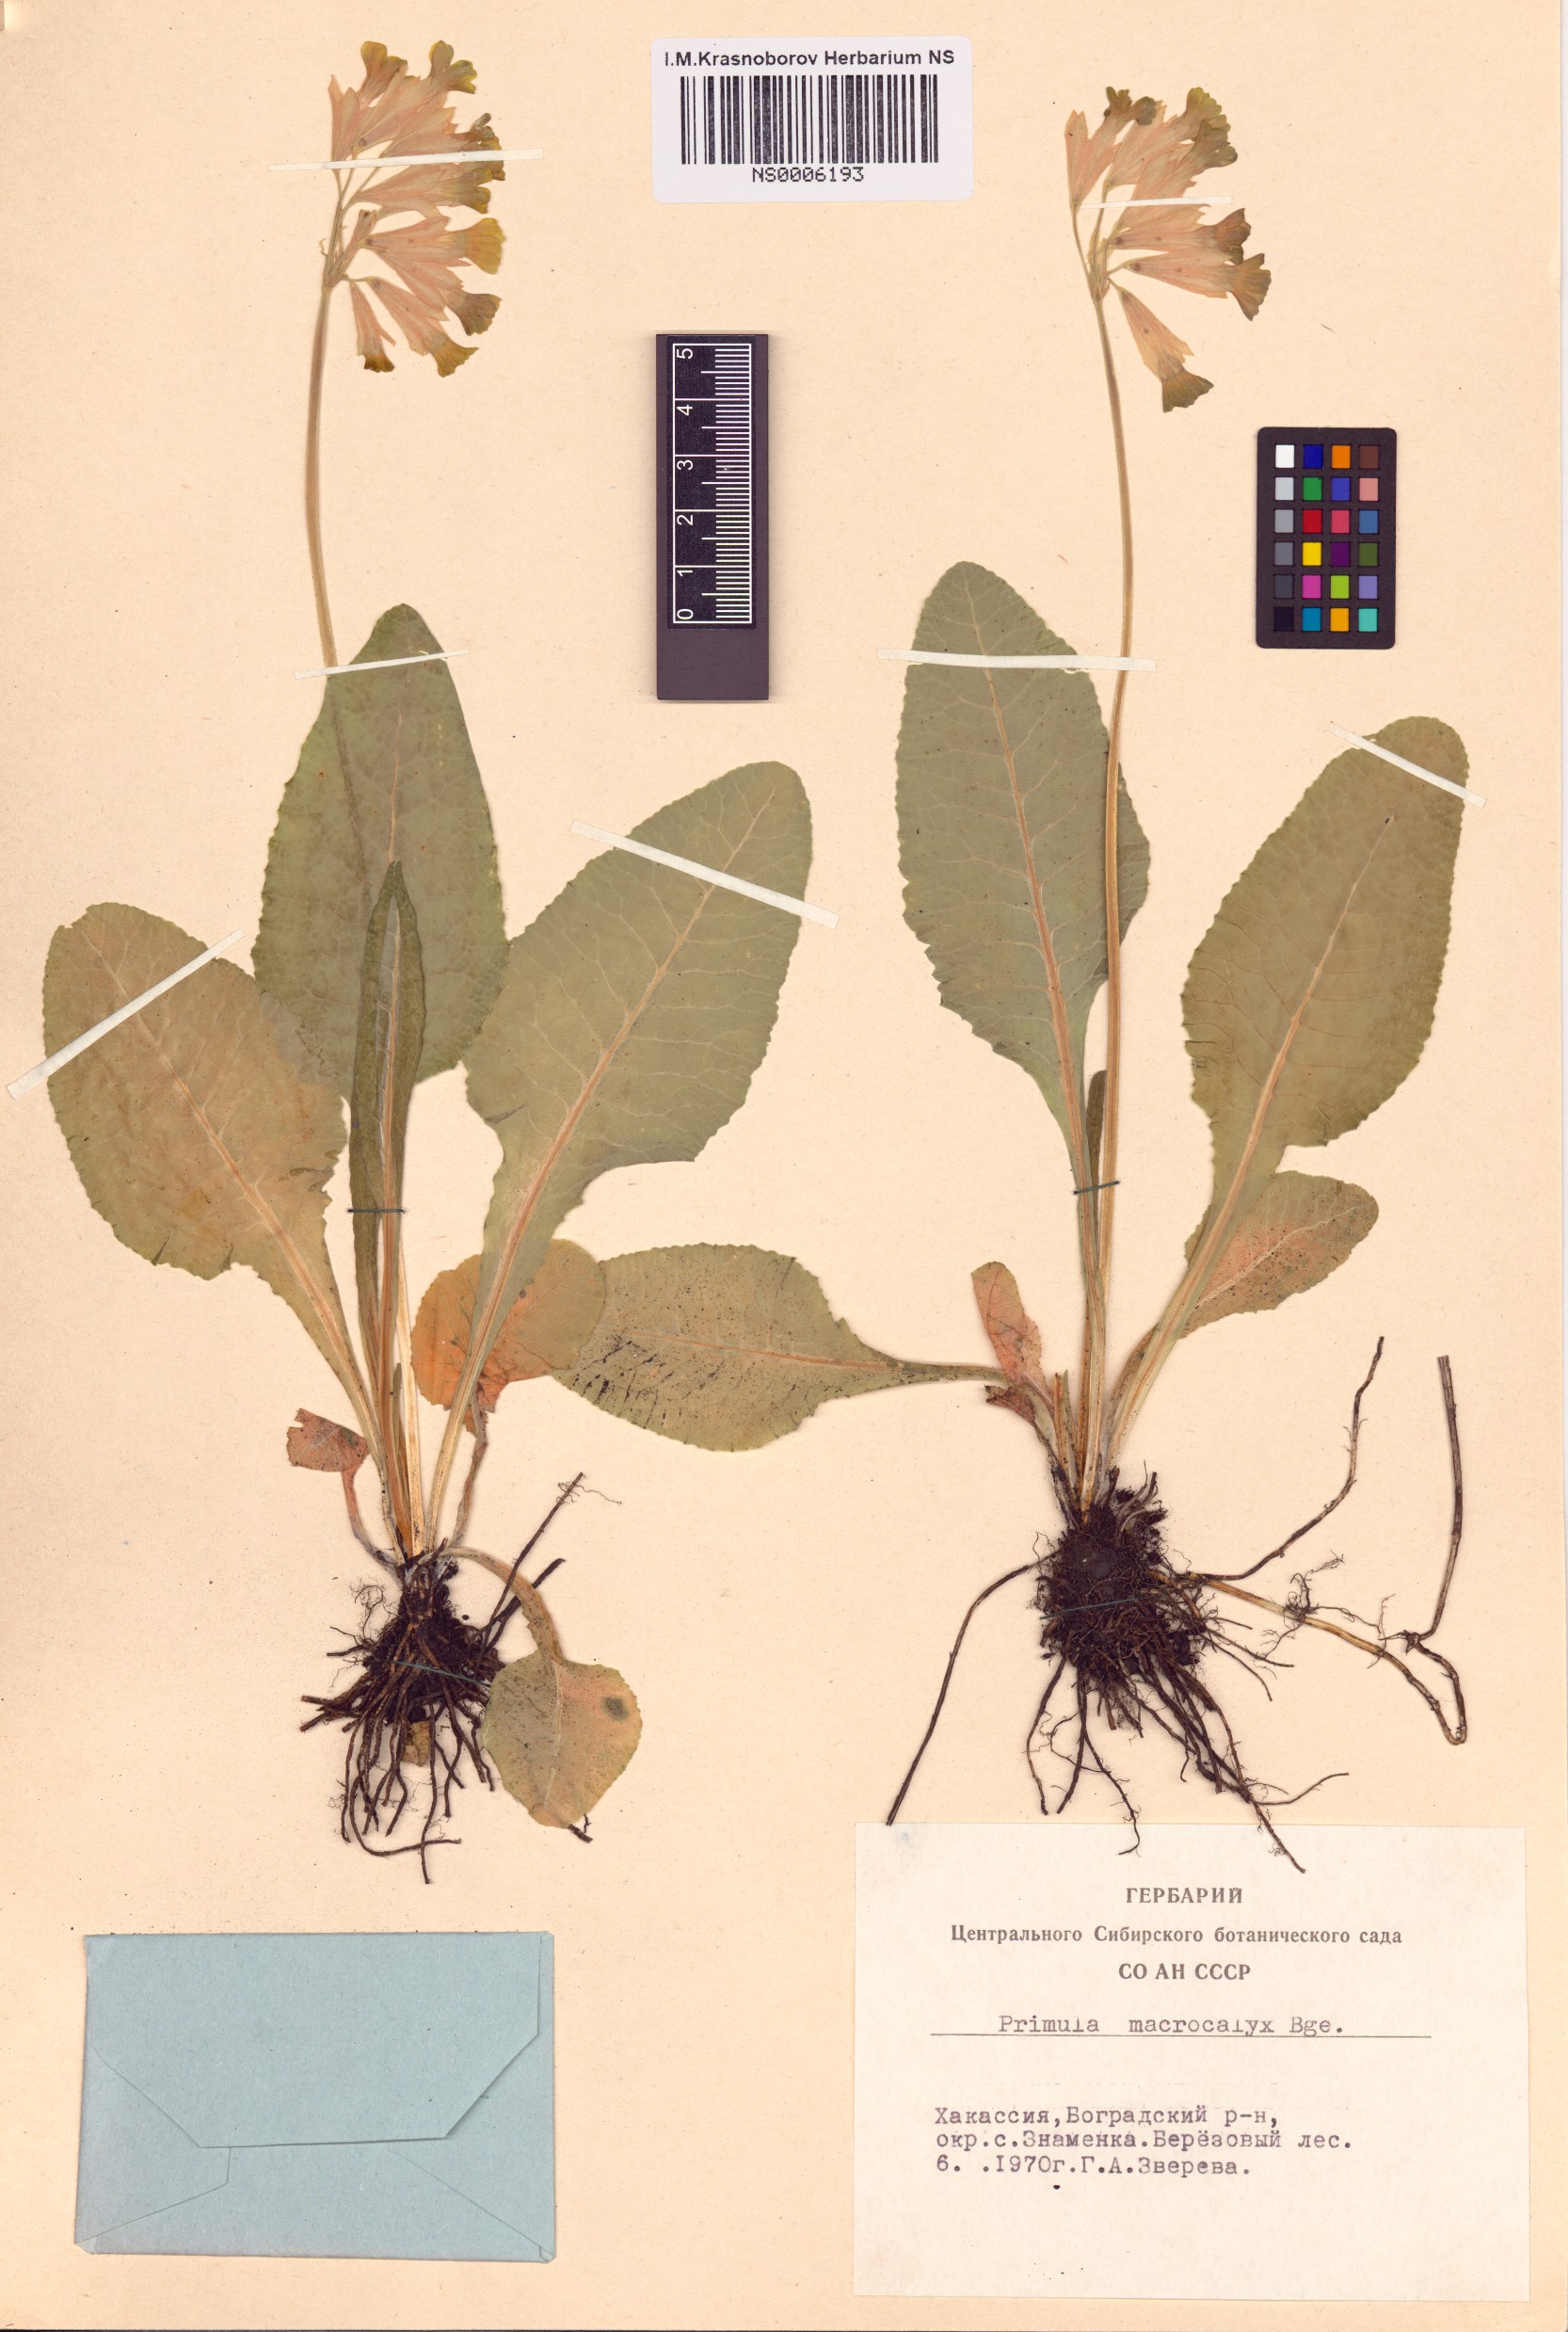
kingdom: Plantae
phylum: Tracheophyta
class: Magnoliopsida
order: Ericales
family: Primulaceae
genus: Primula
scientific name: Primula veris
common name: Cowslip
